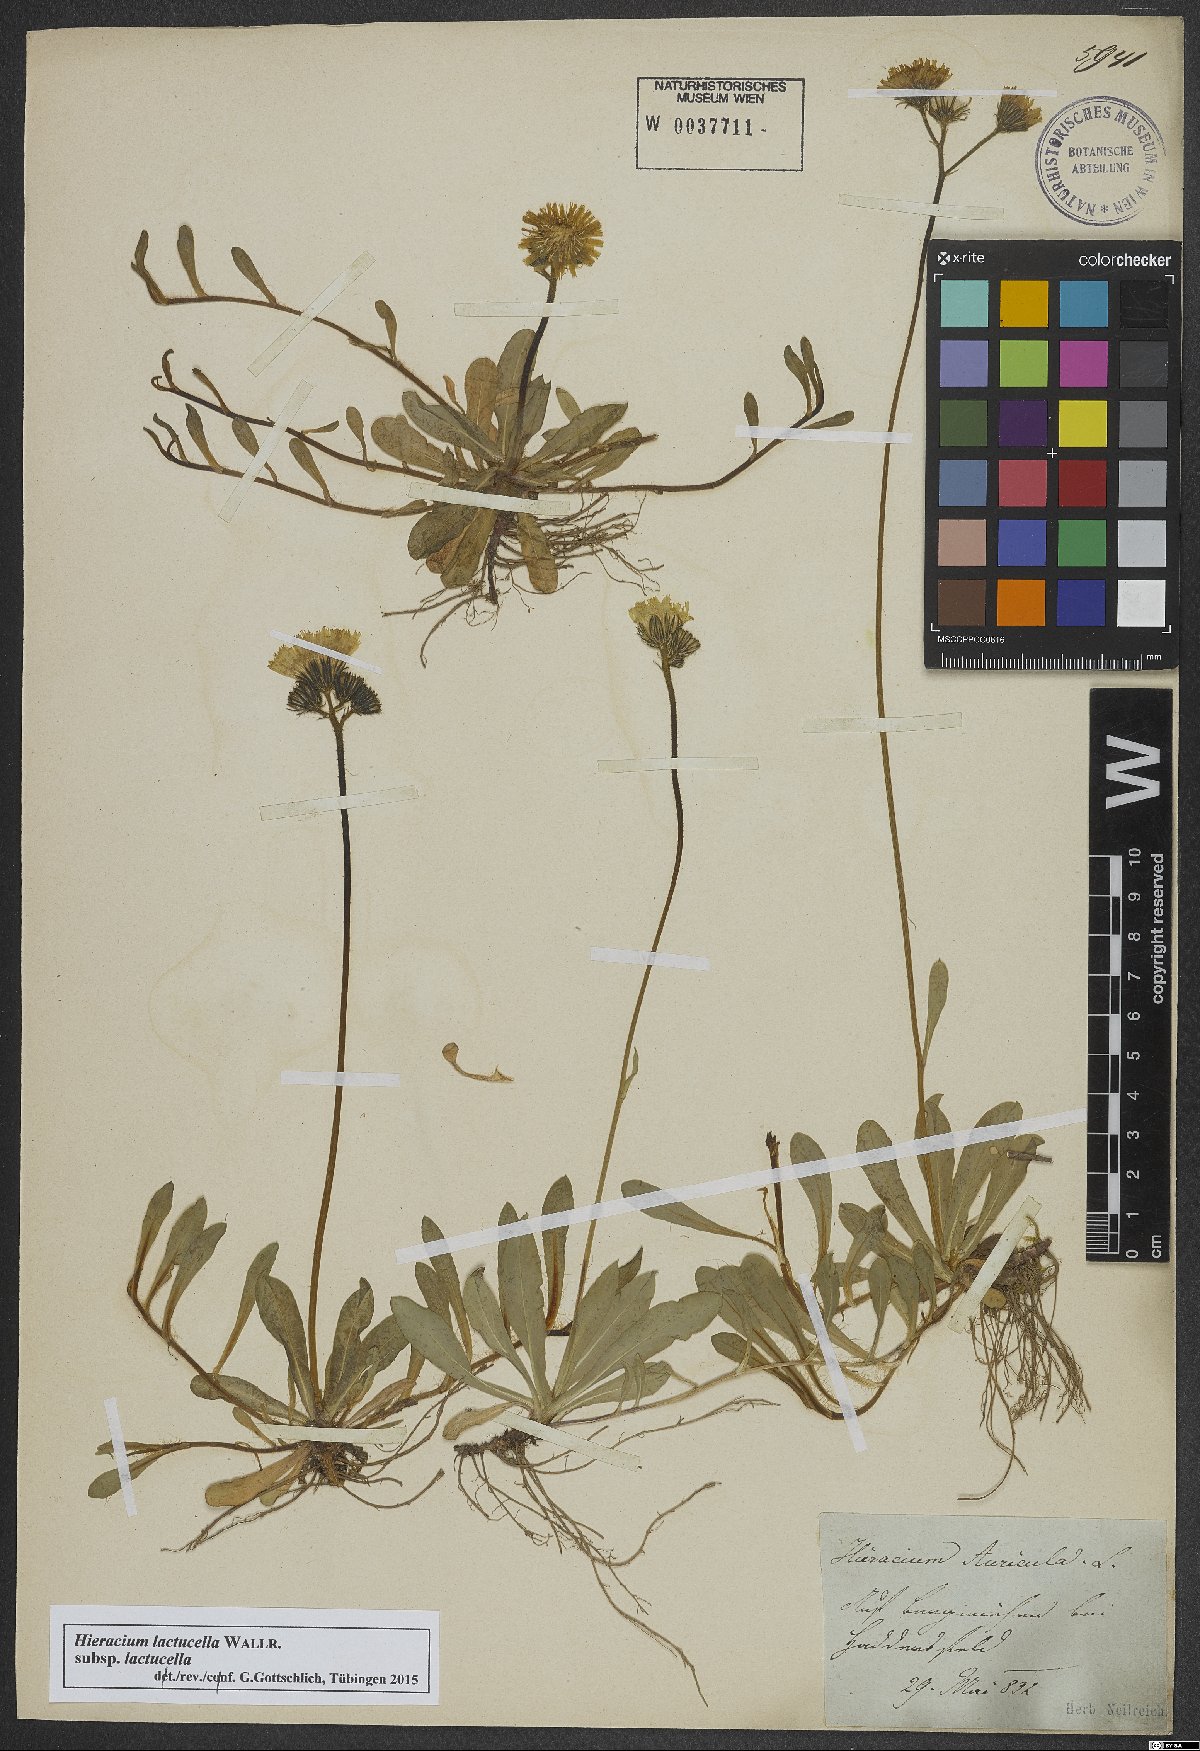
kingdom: Plantae
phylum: Tracheophyta
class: Magnoliopsida
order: Asterales
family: Asteraceae
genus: Pilosella
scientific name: Pilosella lactucella
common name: Glaucous fox-and-cubs
